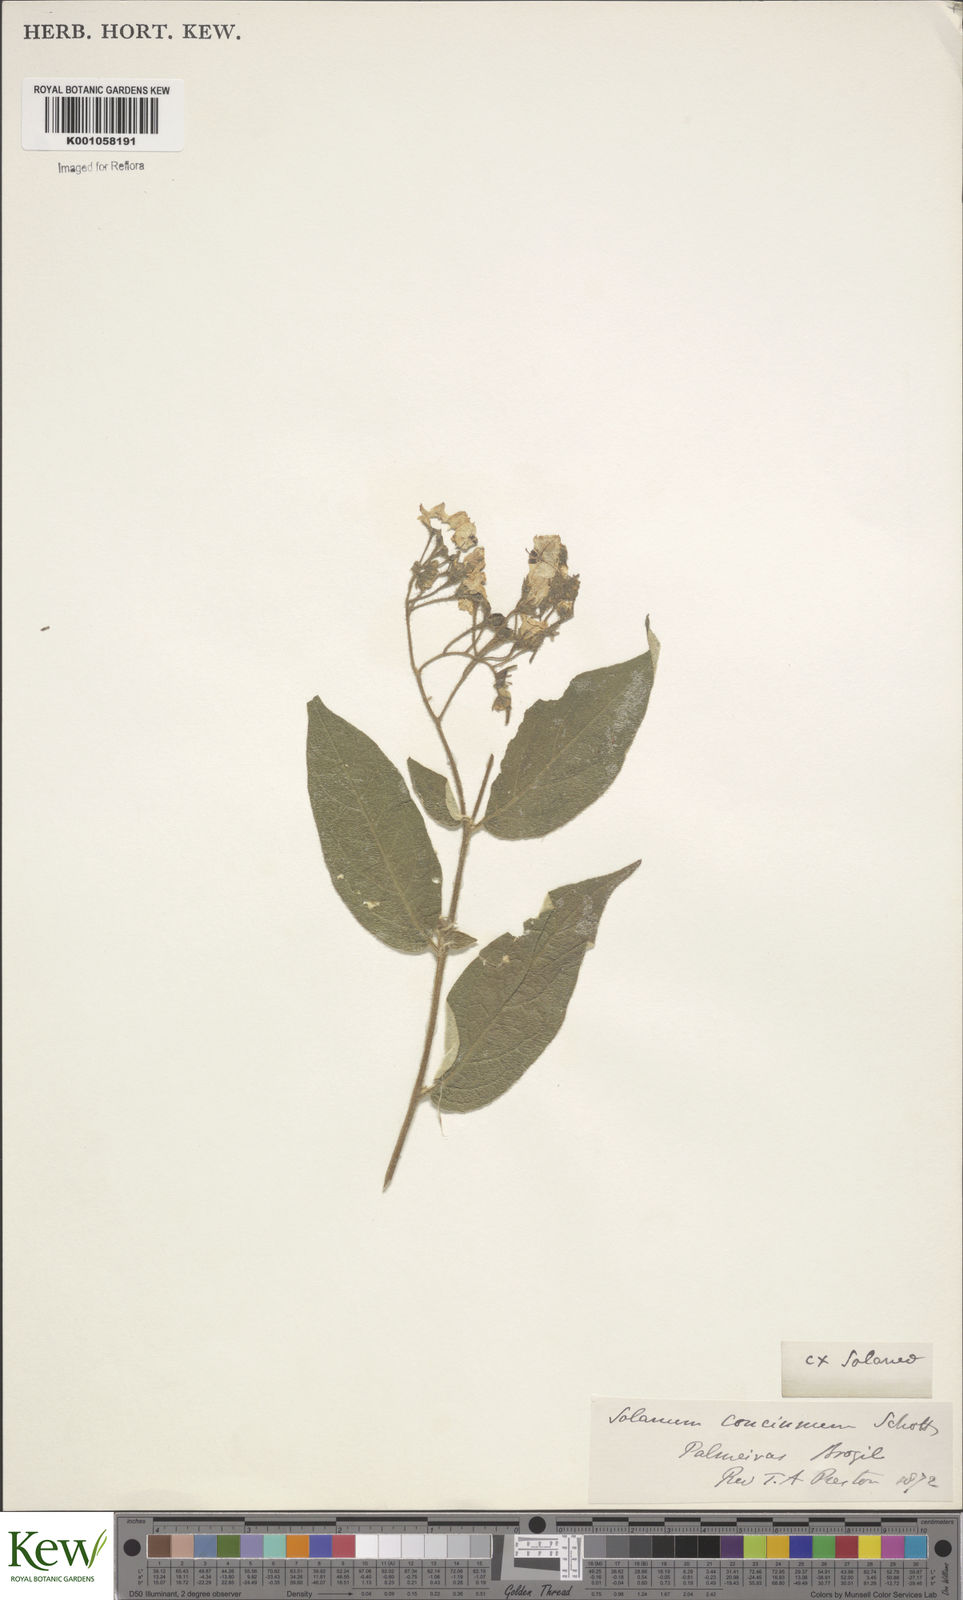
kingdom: Plantae
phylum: Tracheophyta
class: Magnoliopsida
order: Solanales
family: Solanaceae
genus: Solanum
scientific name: Solanum concinnum
